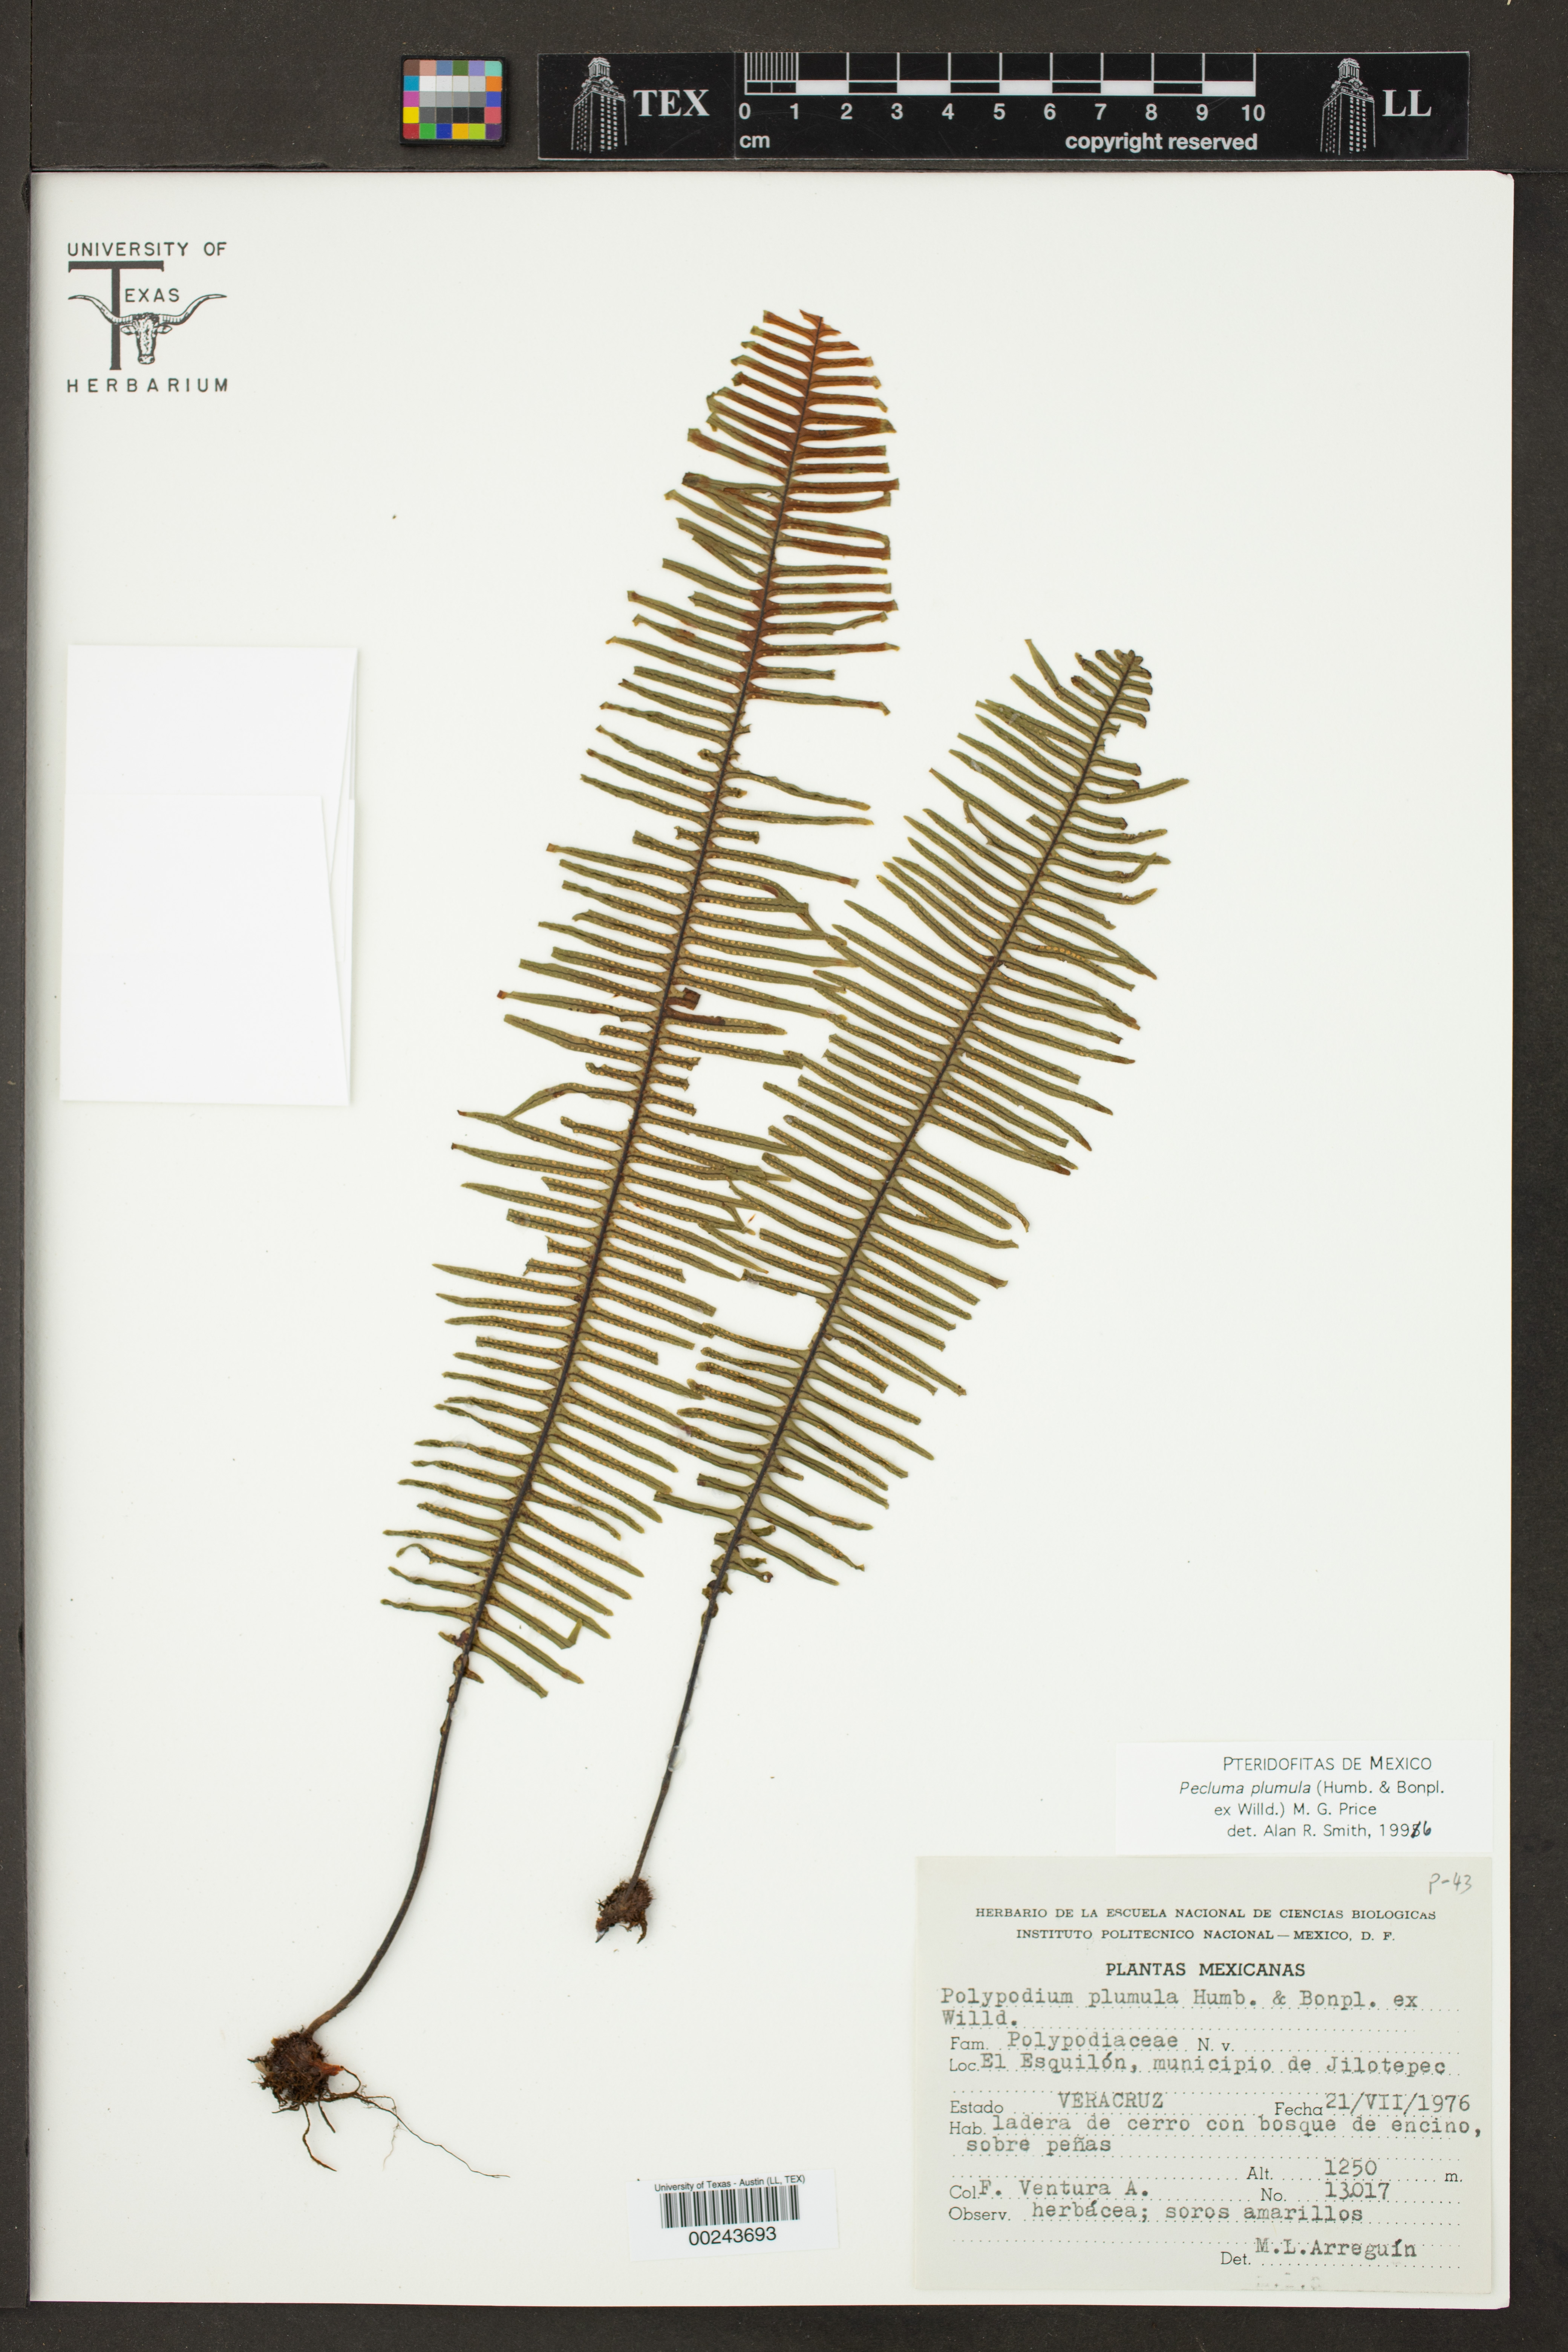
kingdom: Plantae
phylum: Tracheophyta
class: Polypodiopsida
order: Polypodiales
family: Polypodiaceae
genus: Pecluma
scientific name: Pecluma plumula
